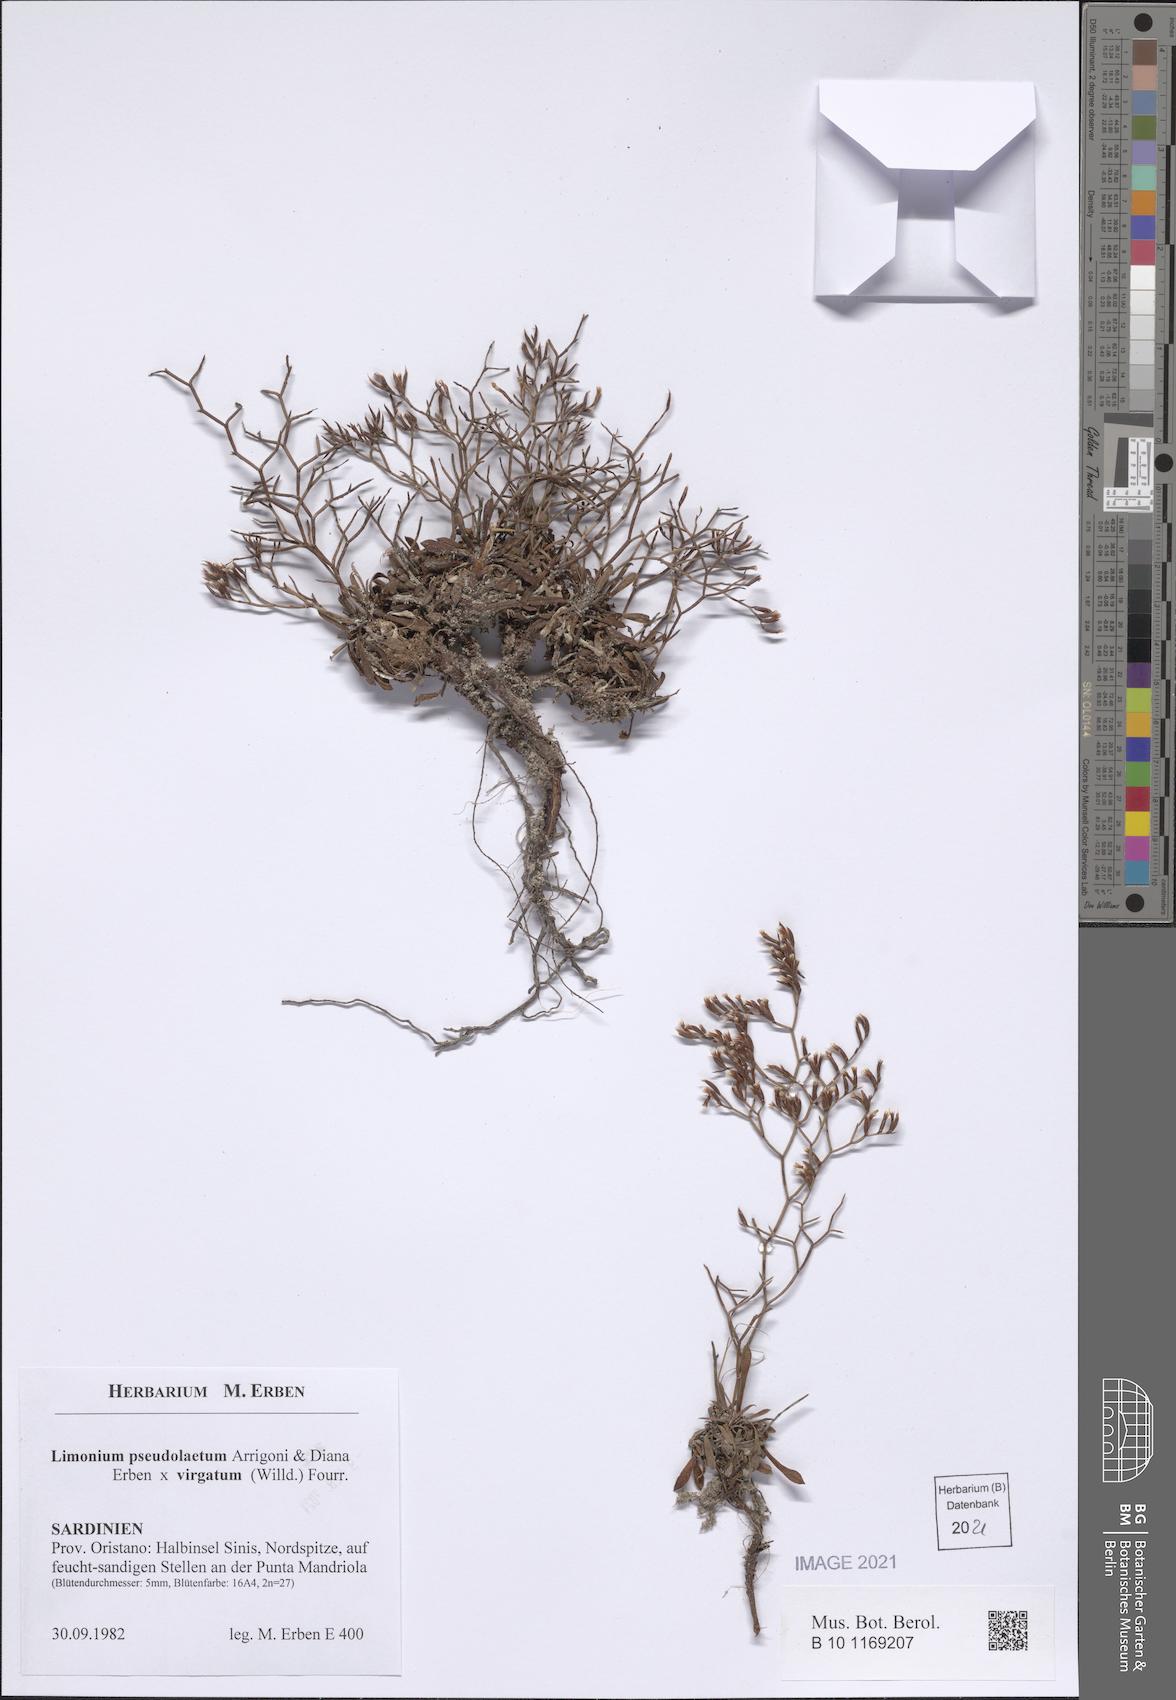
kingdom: Plantae
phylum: Tracheophyta
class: Magnoliopsida
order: Caryophyllales
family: Plumbaginaceae
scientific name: Plumbaginaceae
